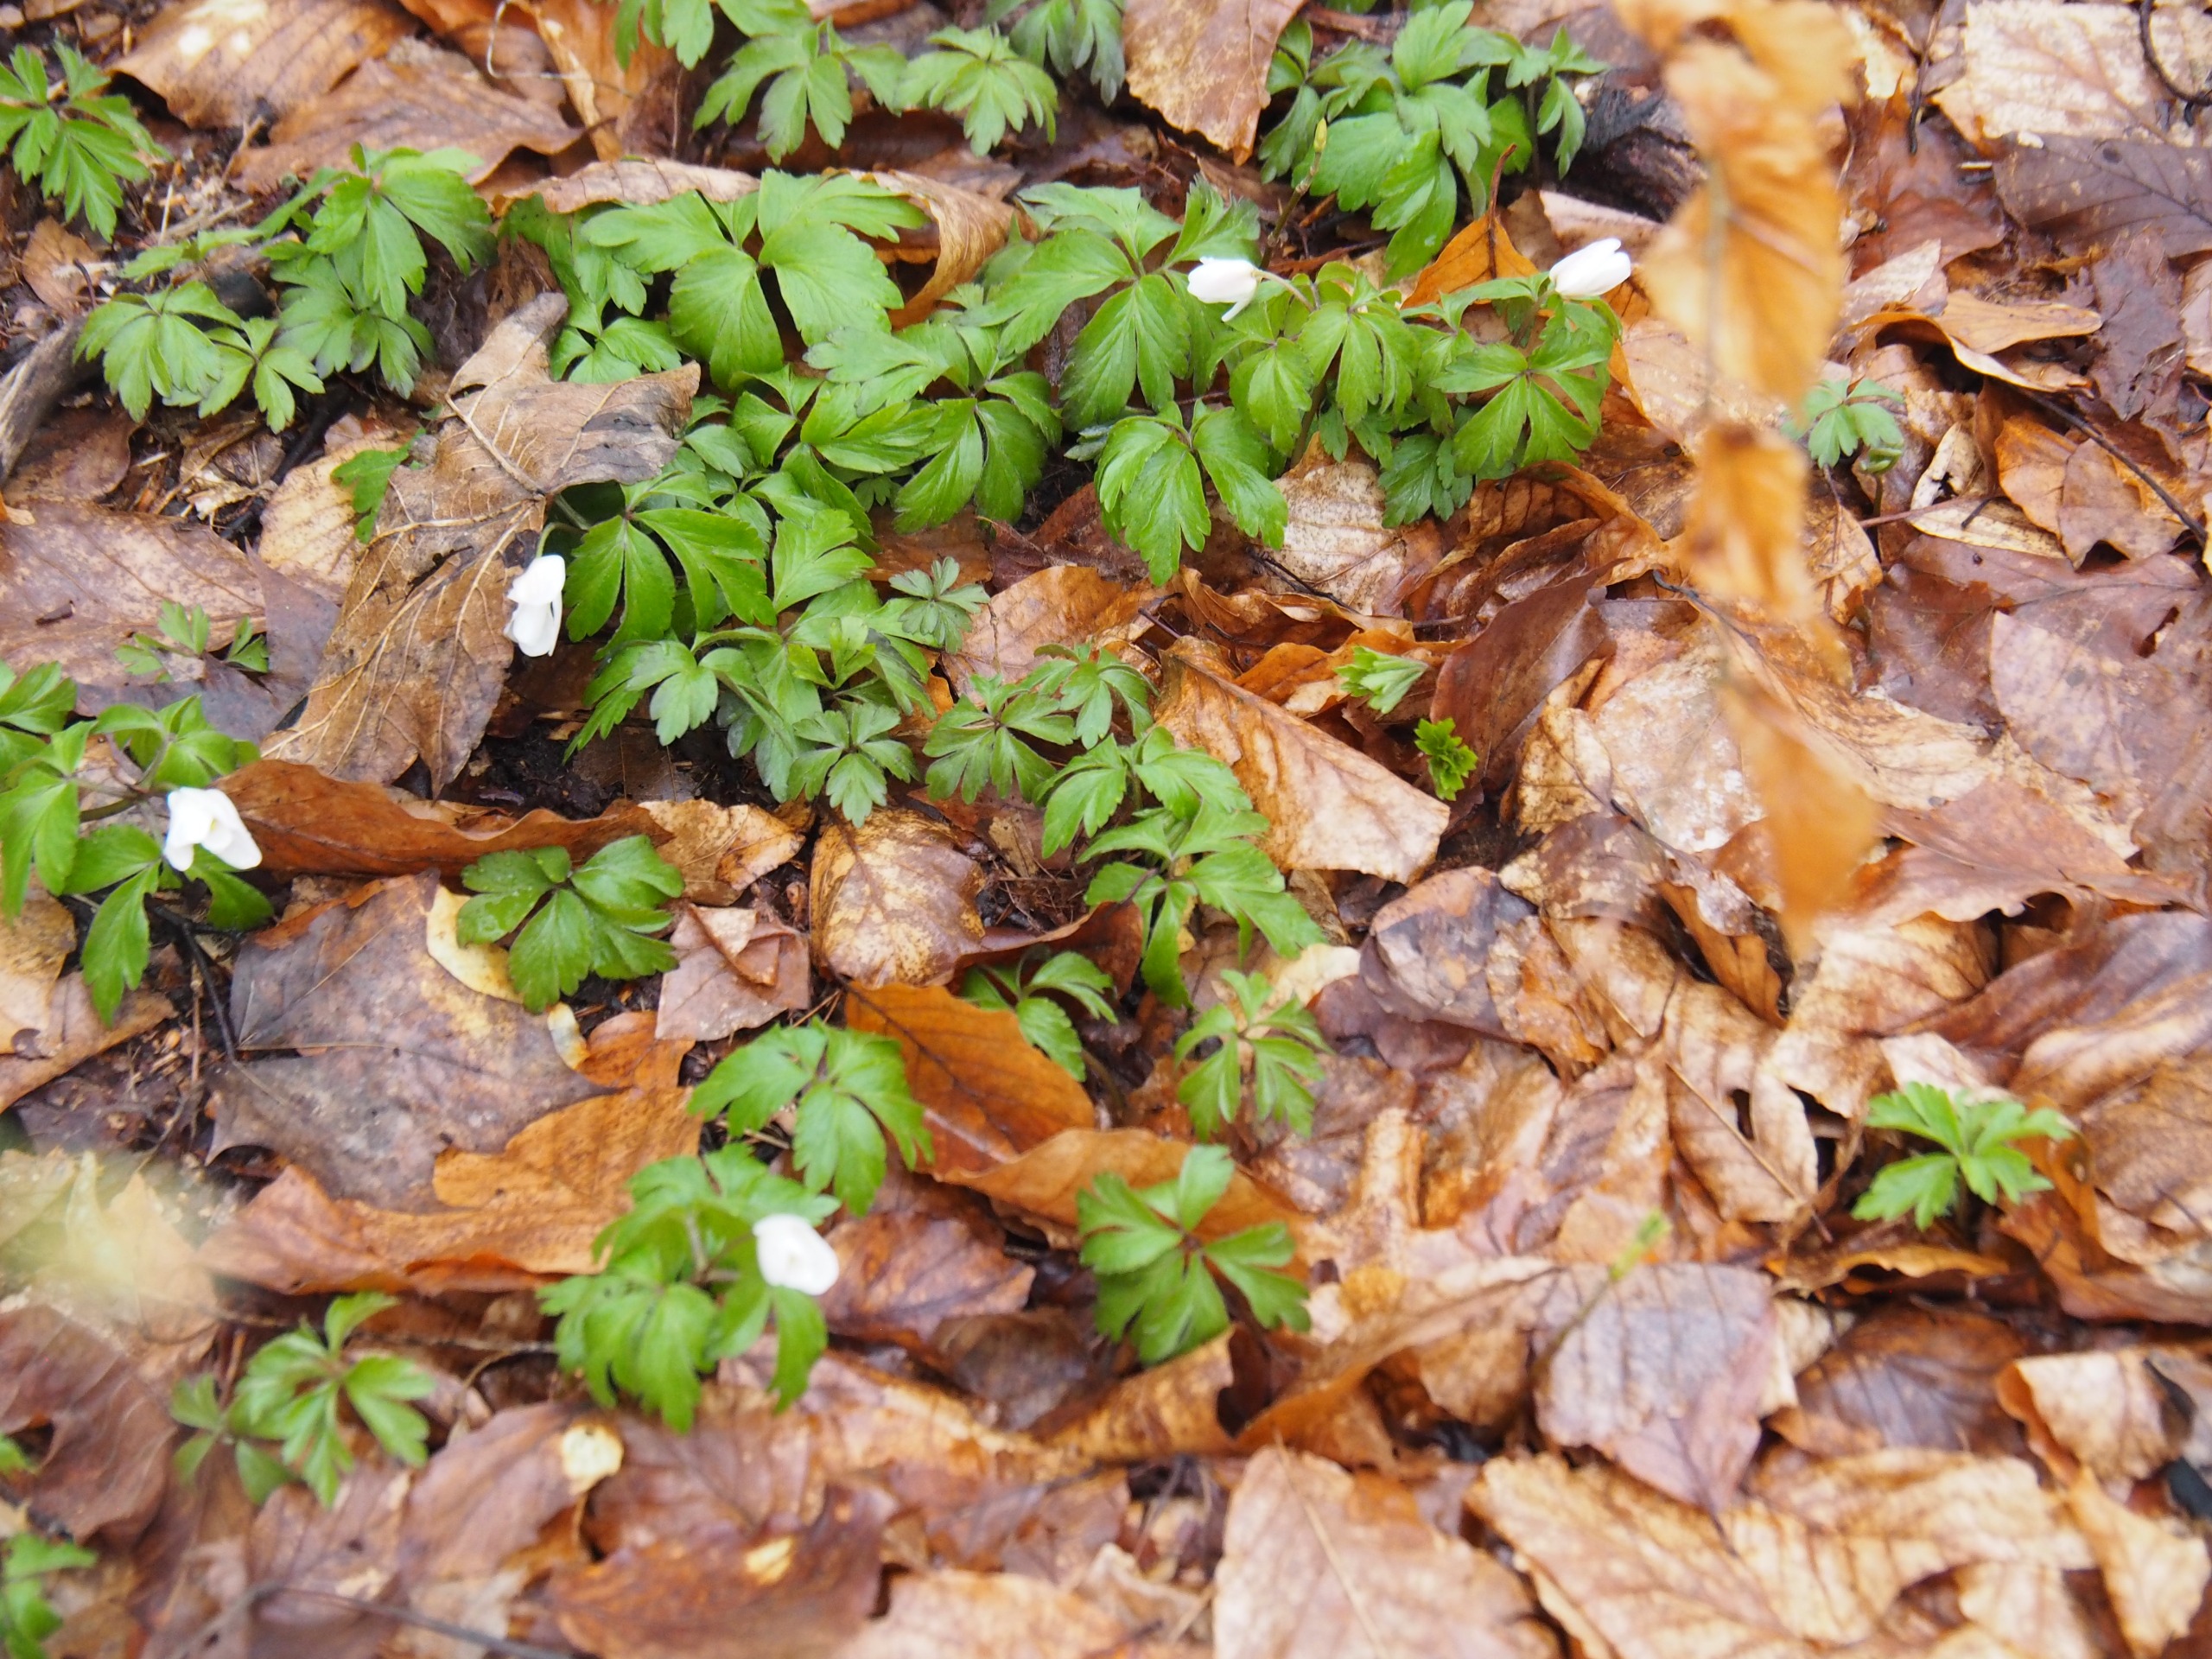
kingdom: Plantae
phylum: Tracheophyta
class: Magnoliopsida
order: Ranunculales
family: Ranunculaceae
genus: Anemone
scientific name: Anemone nemorosa
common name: Hvid anemone
